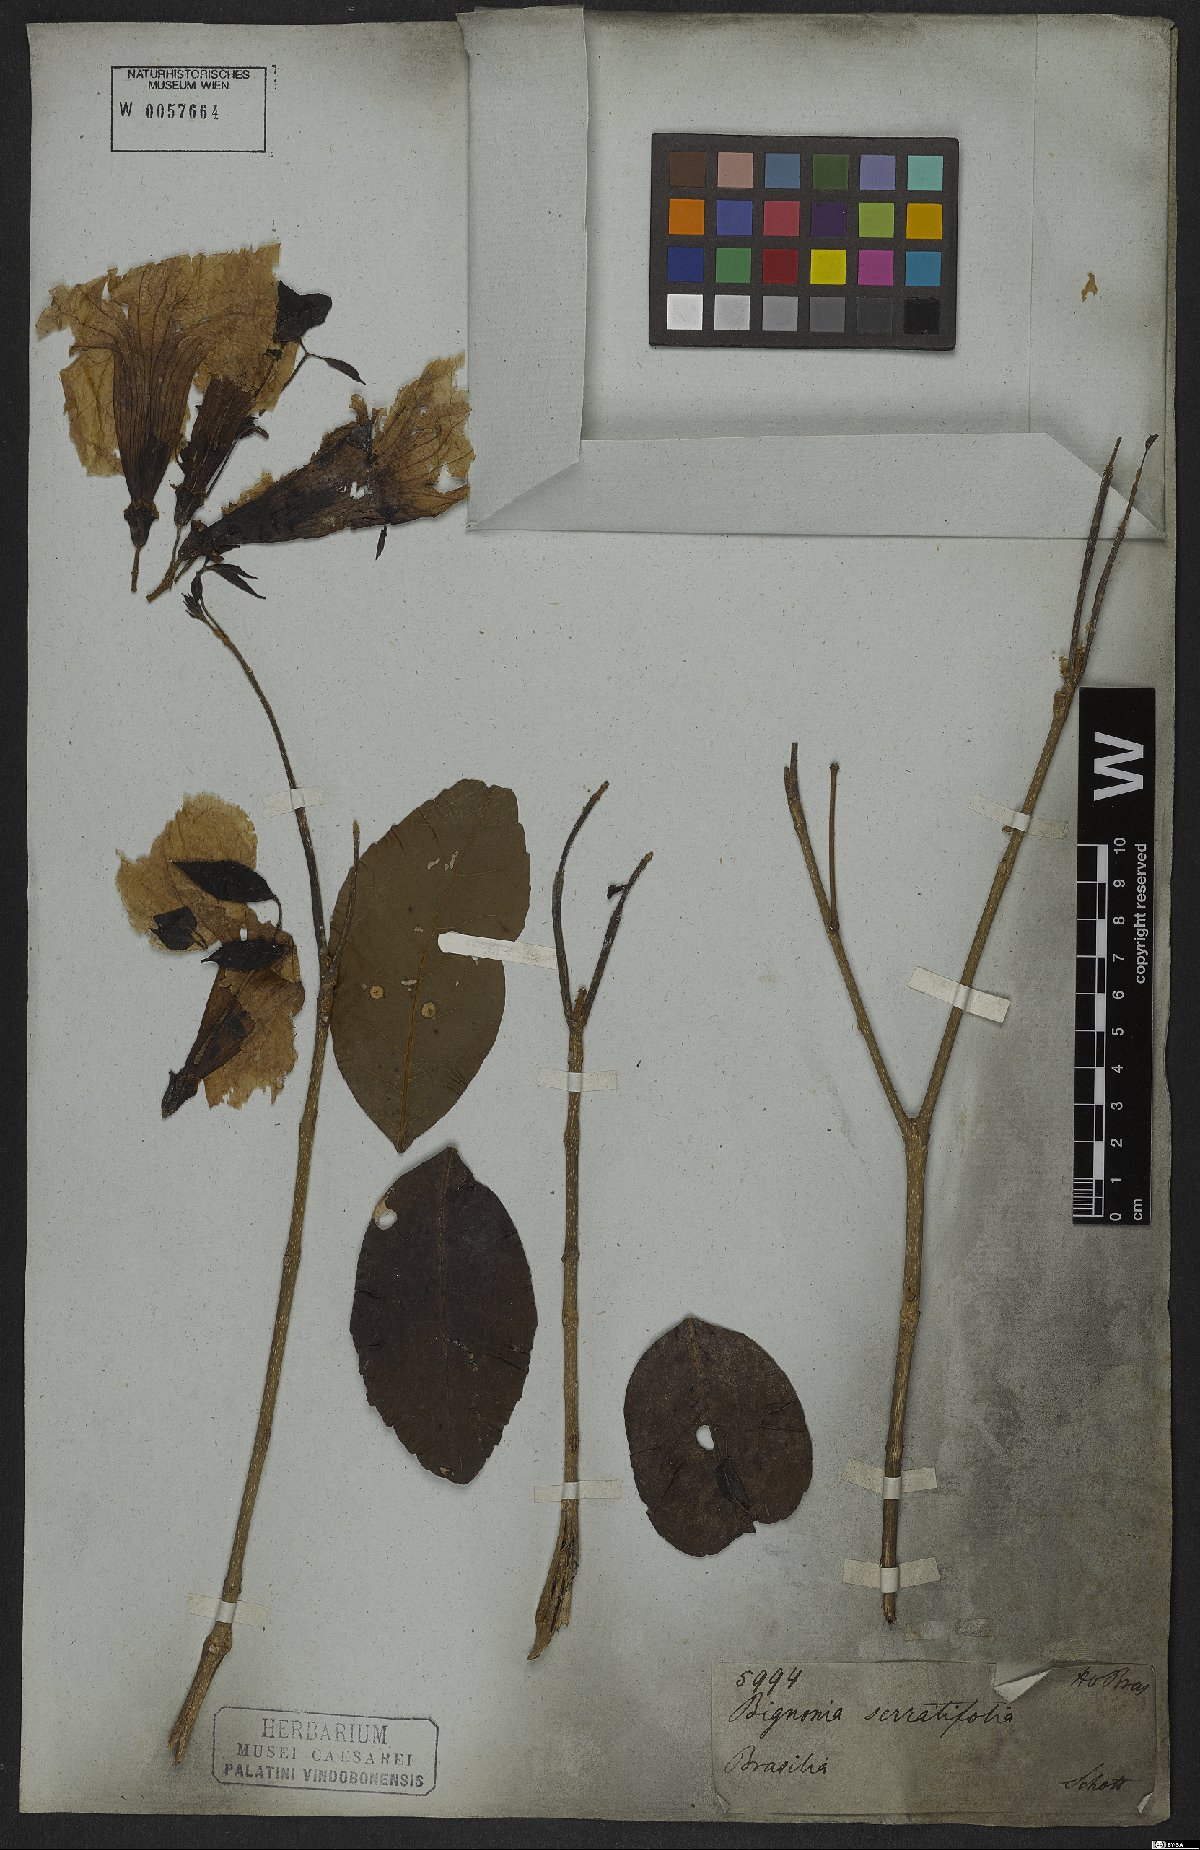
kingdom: Plantae
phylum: Tracheophyta
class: Magnoliopsida
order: Lamiales
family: Bignoniaceae
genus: Handroanthus
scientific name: Handroanthus serratifolius
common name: Yellow ipe
